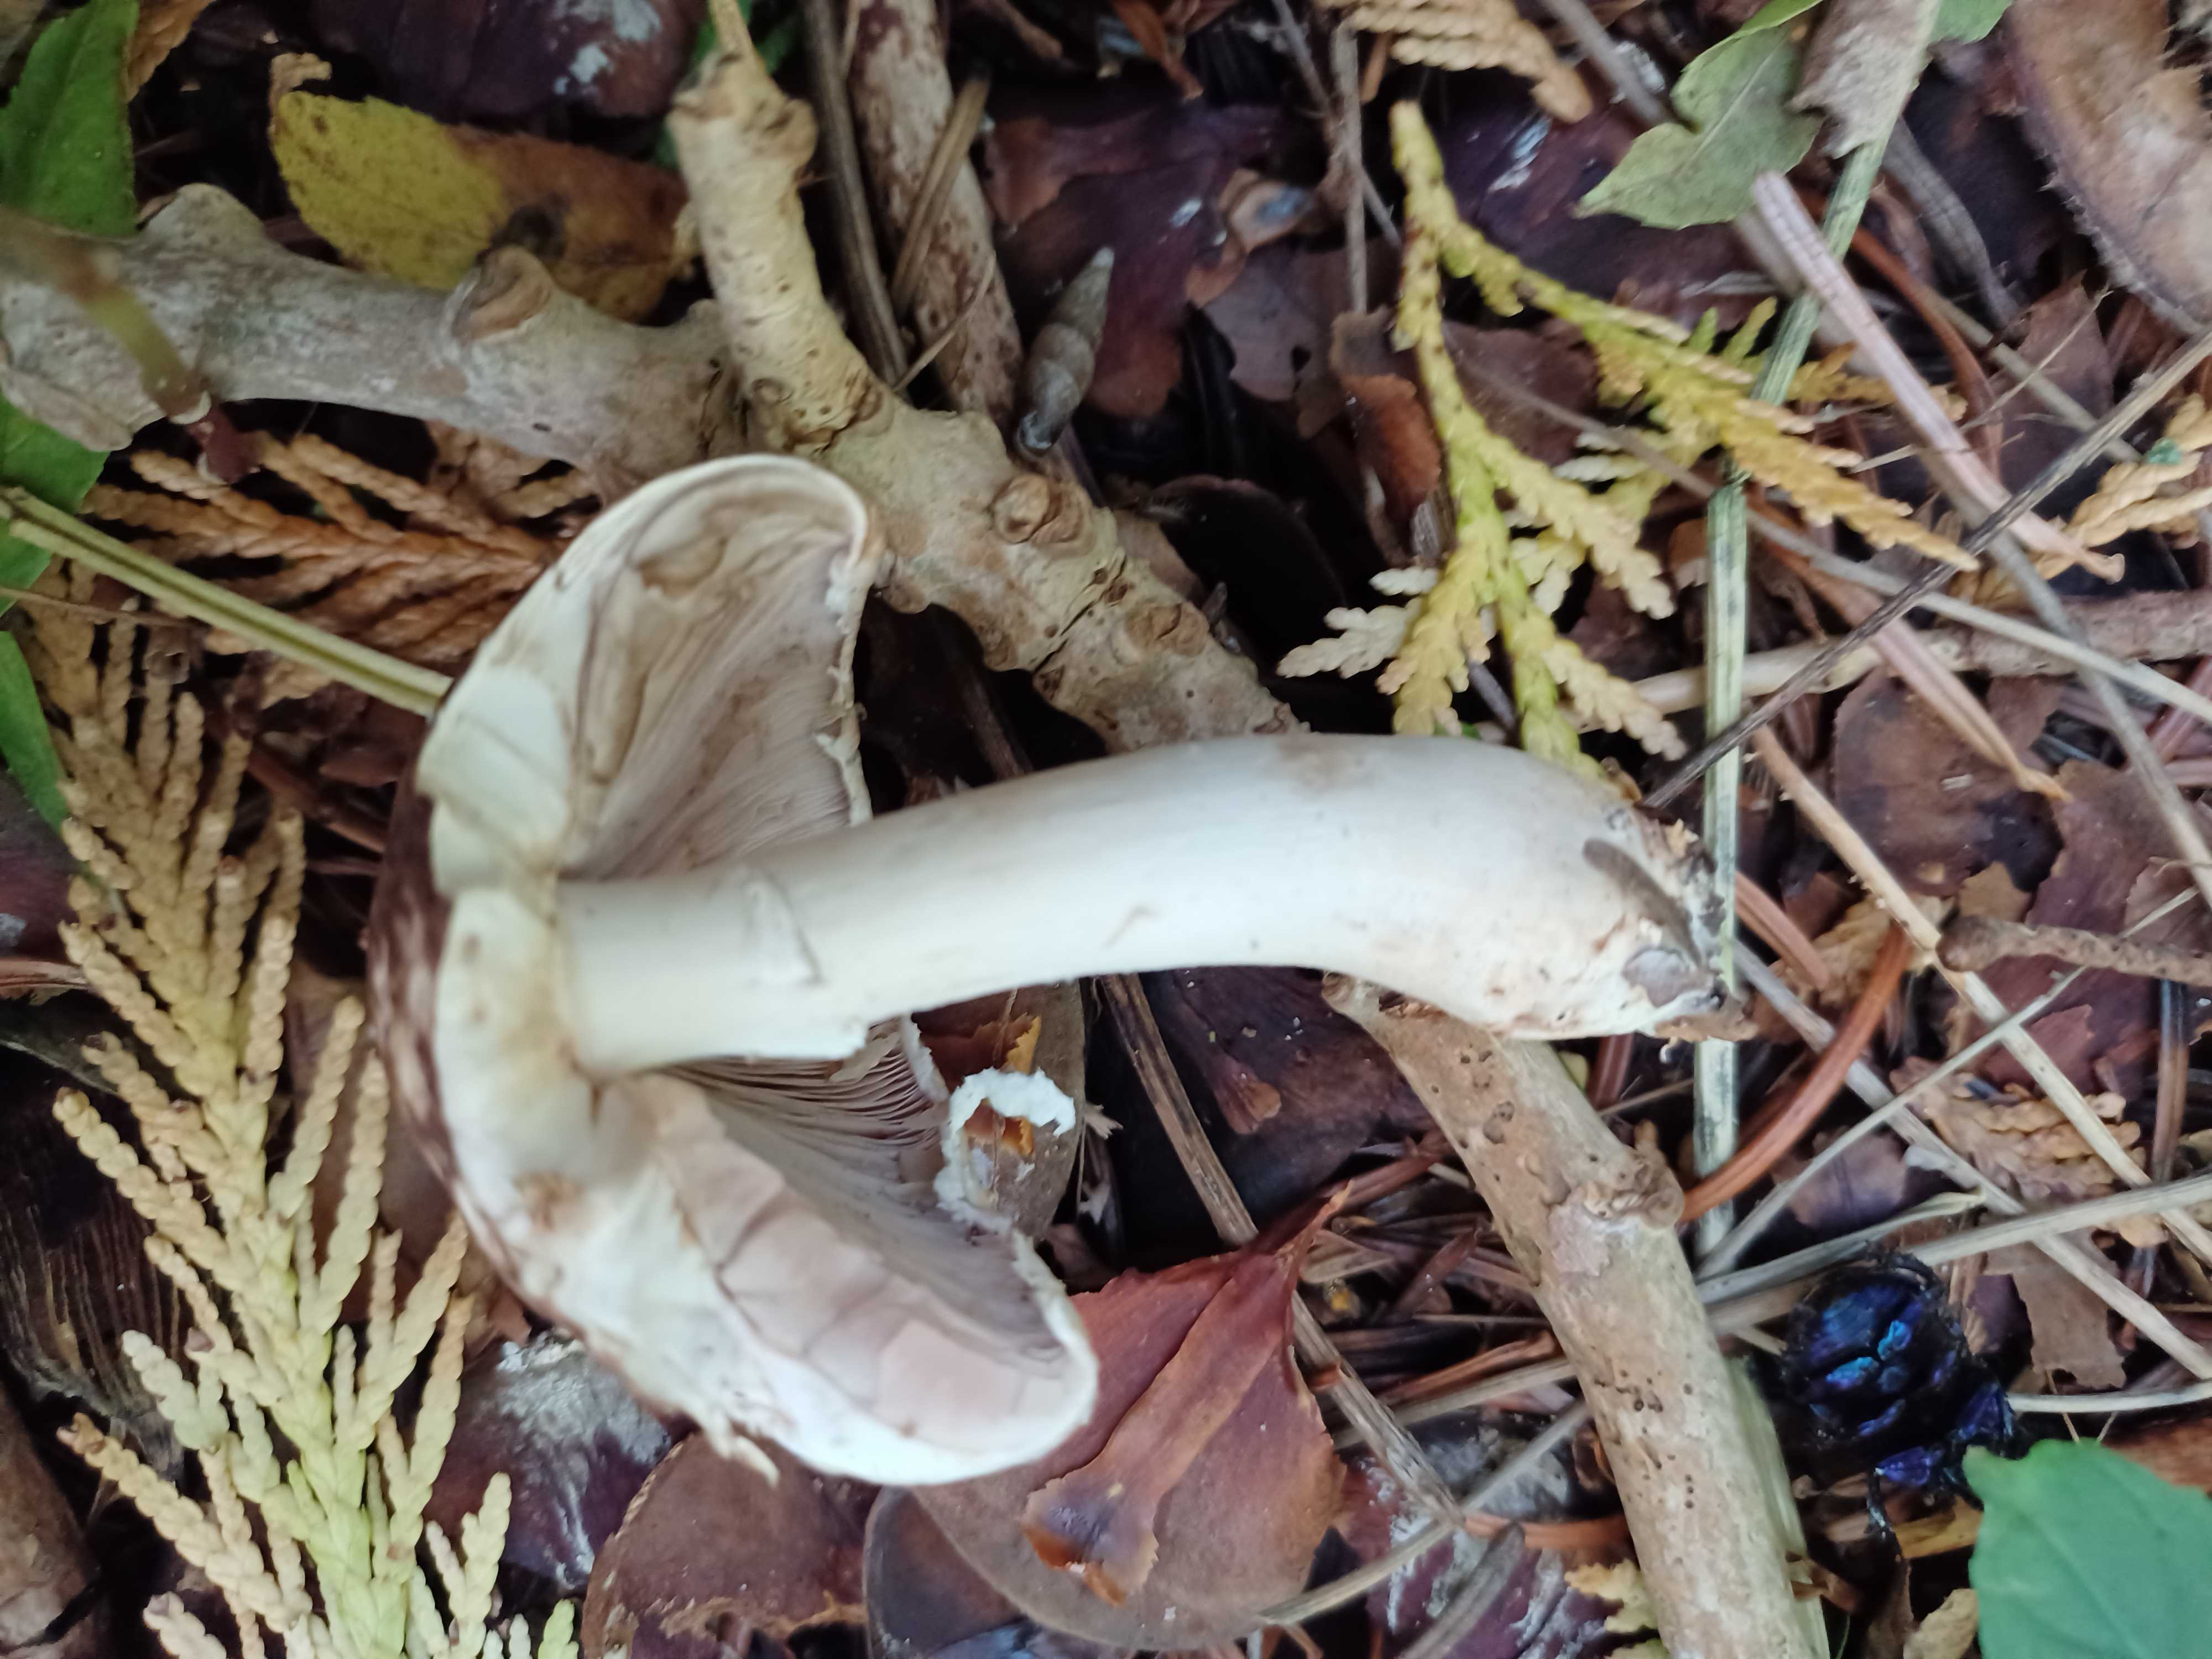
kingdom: Fungi
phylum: Basidiomycota
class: Agaricomycetes
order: Agaricales
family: Agaricaceae
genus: Agaricus
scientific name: Agaricus impudicus
